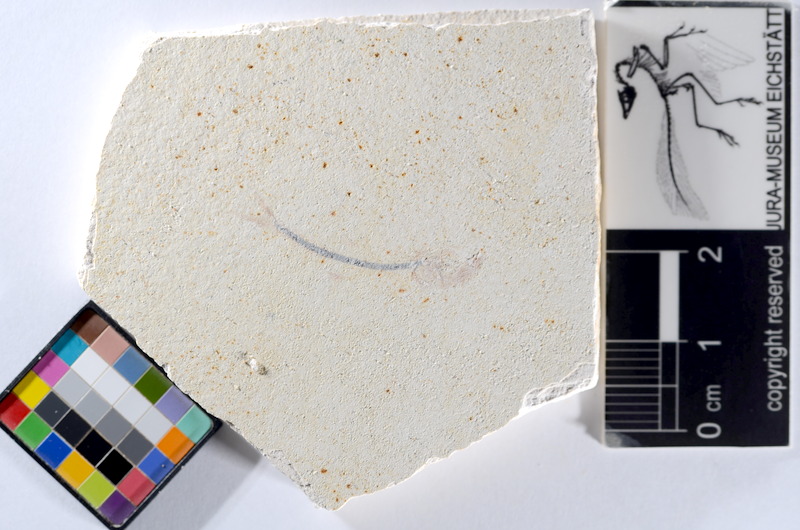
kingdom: Animalia
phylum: Chordata
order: Salmoniformes
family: Orthogonikleithridae
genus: Orthogonikleithrus
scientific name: Orthogonikleithrus hoelli
